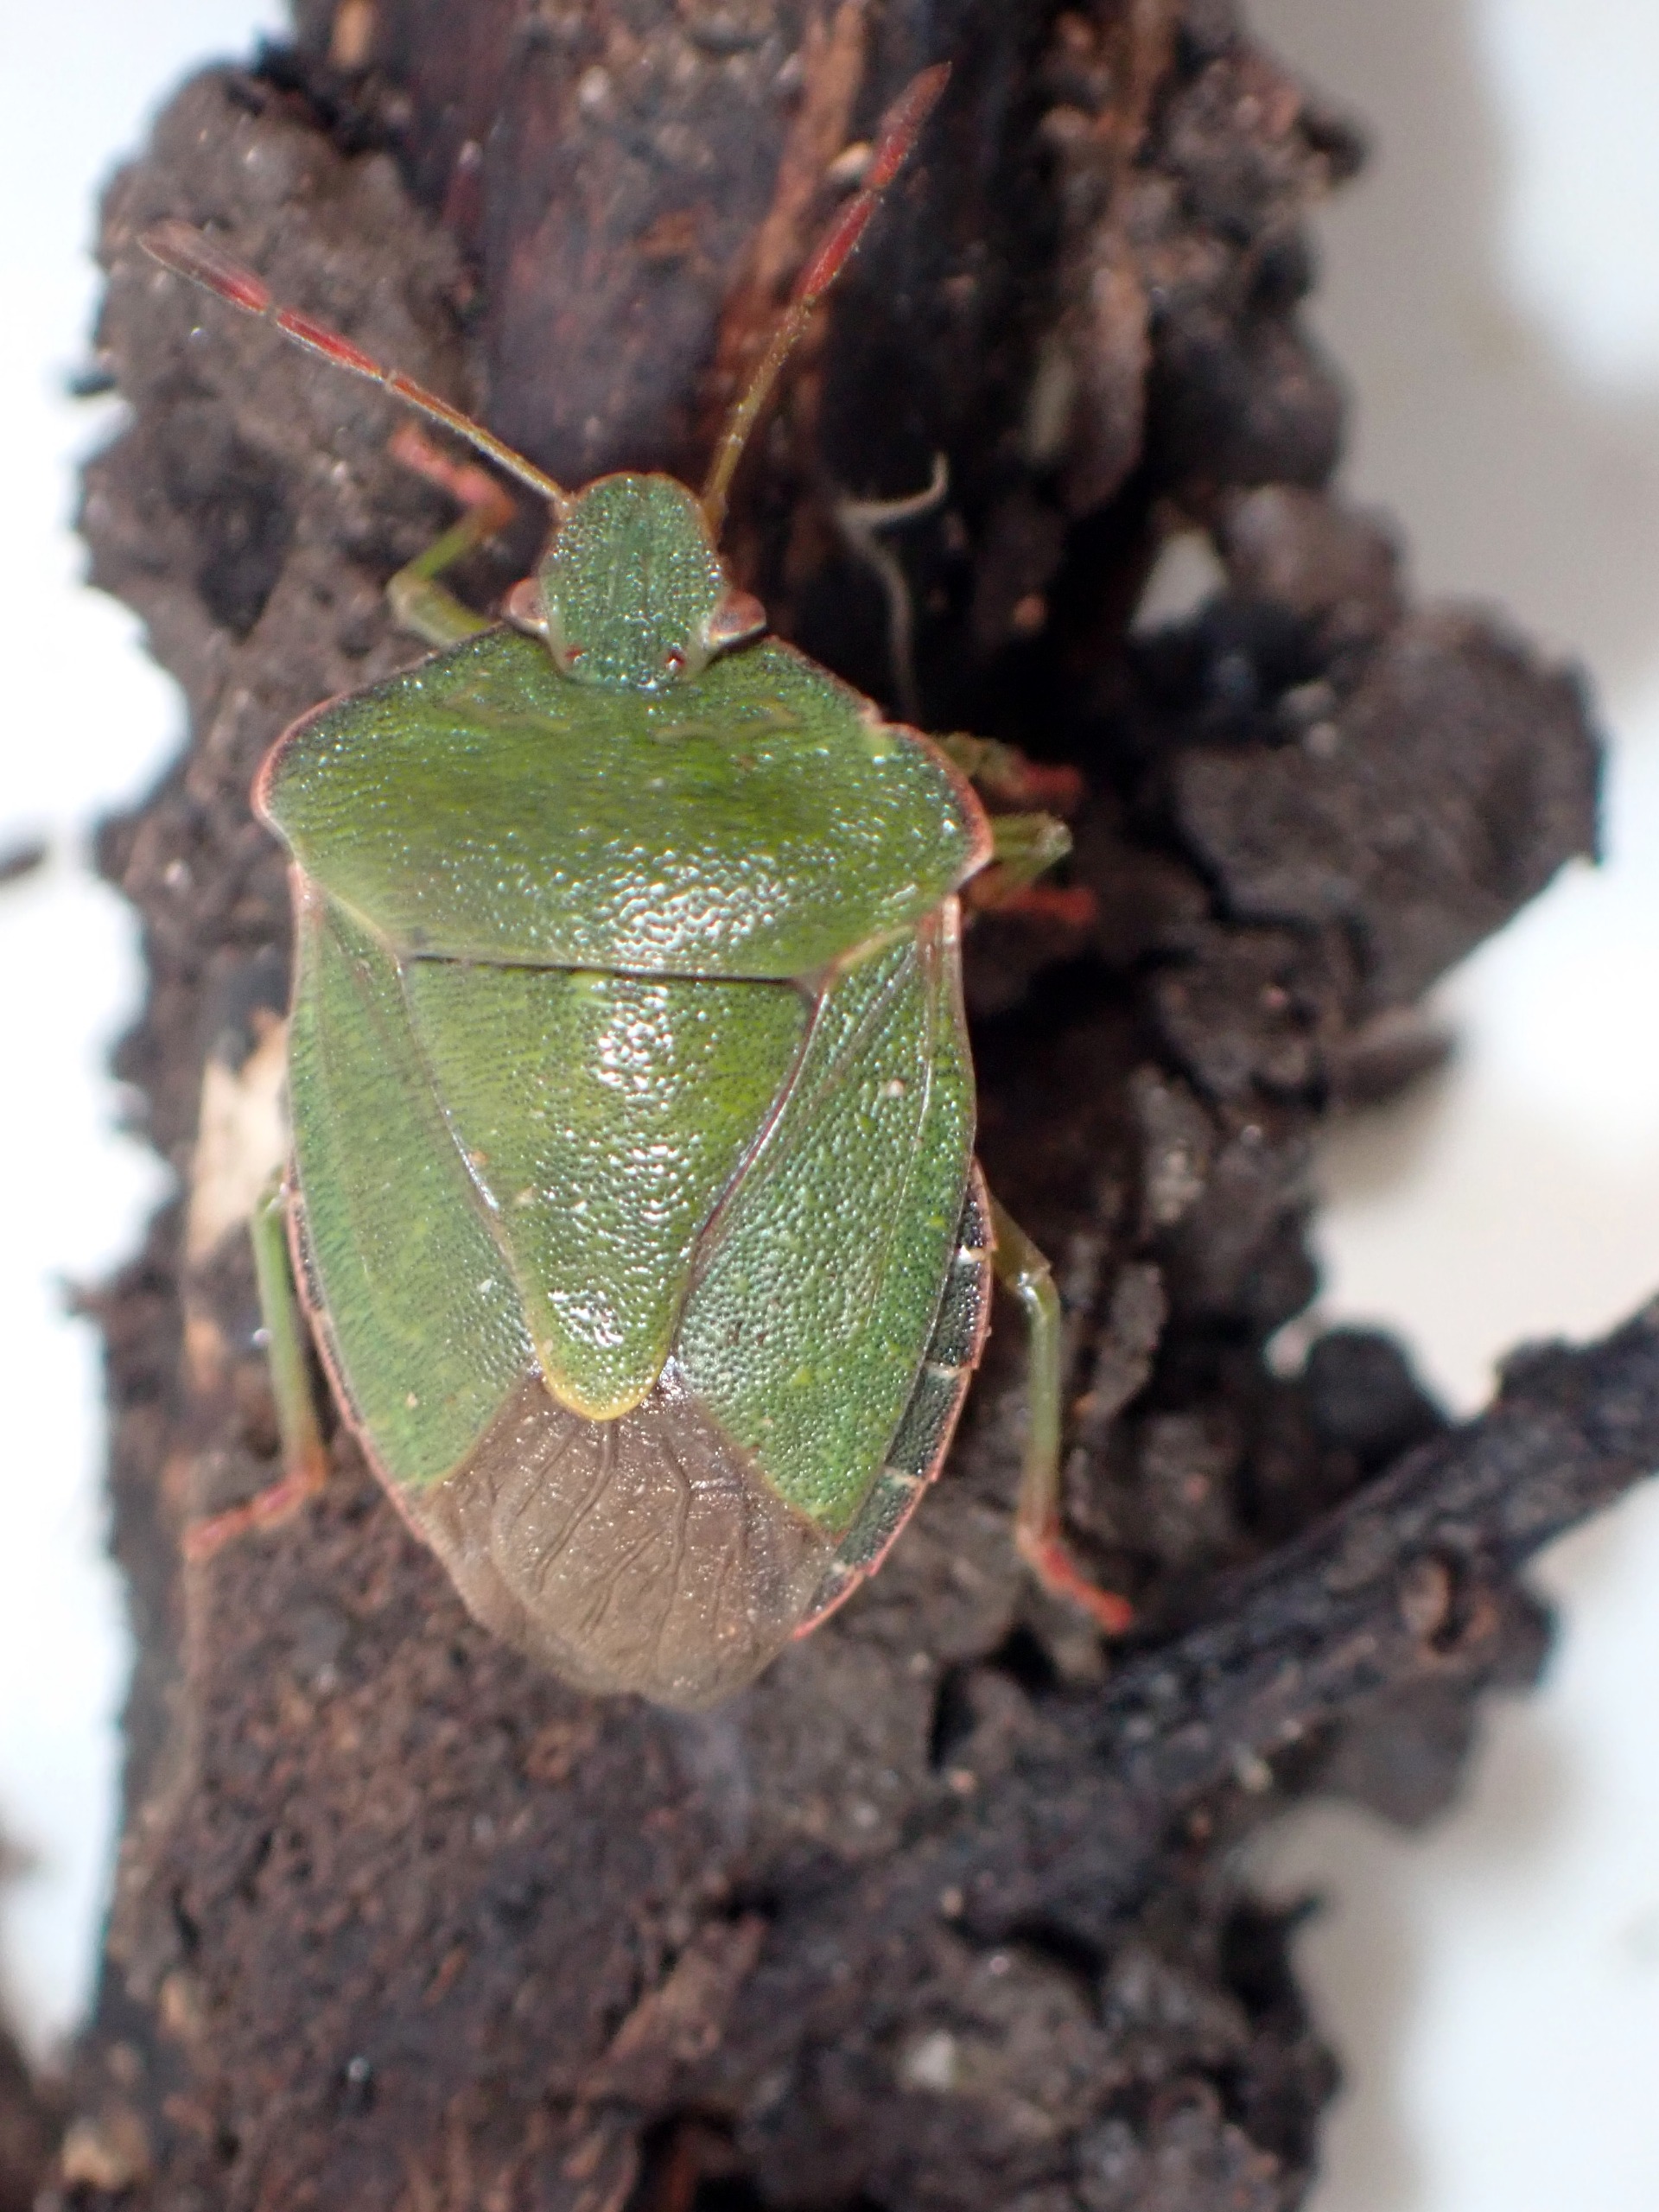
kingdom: Animalia
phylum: Arthropoda
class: Insecta
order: Hemiptera
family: Pentatomidae
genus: Palomena
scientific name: Palomena prasina
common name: Grøn bredtæge
